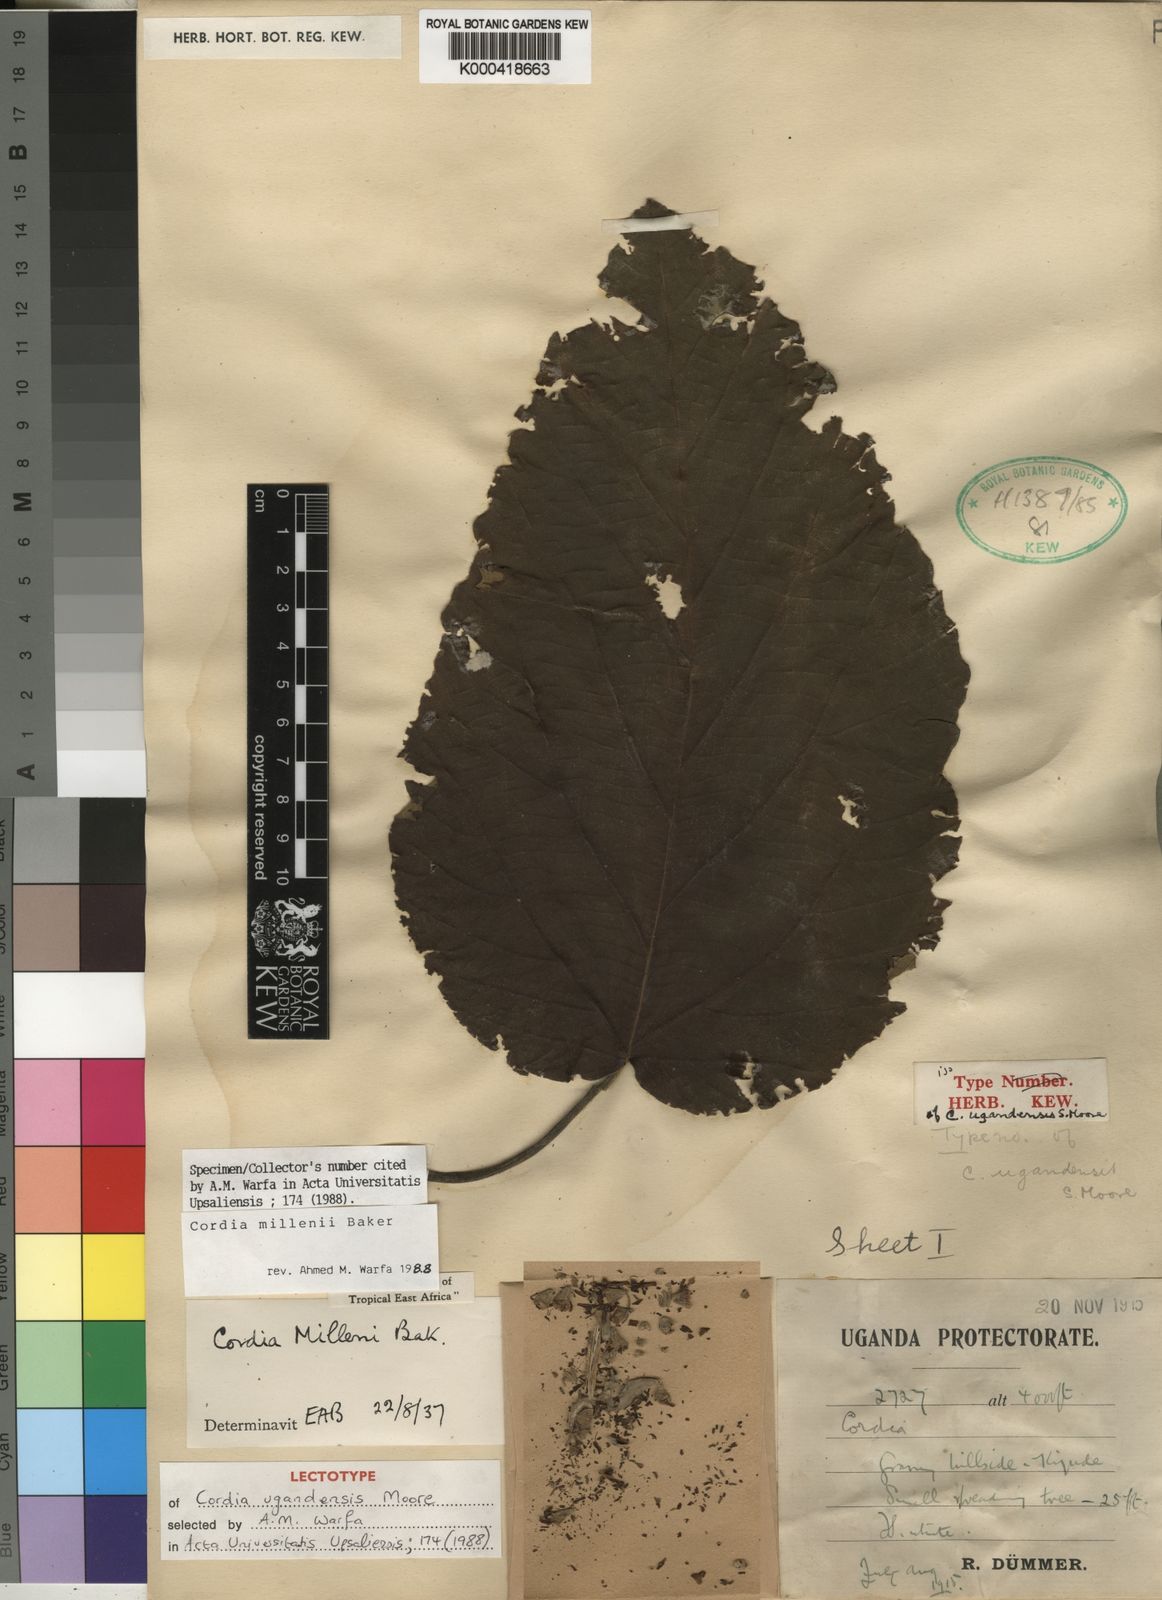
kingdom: Plantae
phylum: Tracheophyta
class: Magnoliopsida
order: Boraginales
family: Cordiaceae
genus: Cordia
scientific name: Cordia millenii
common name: Drum tree
